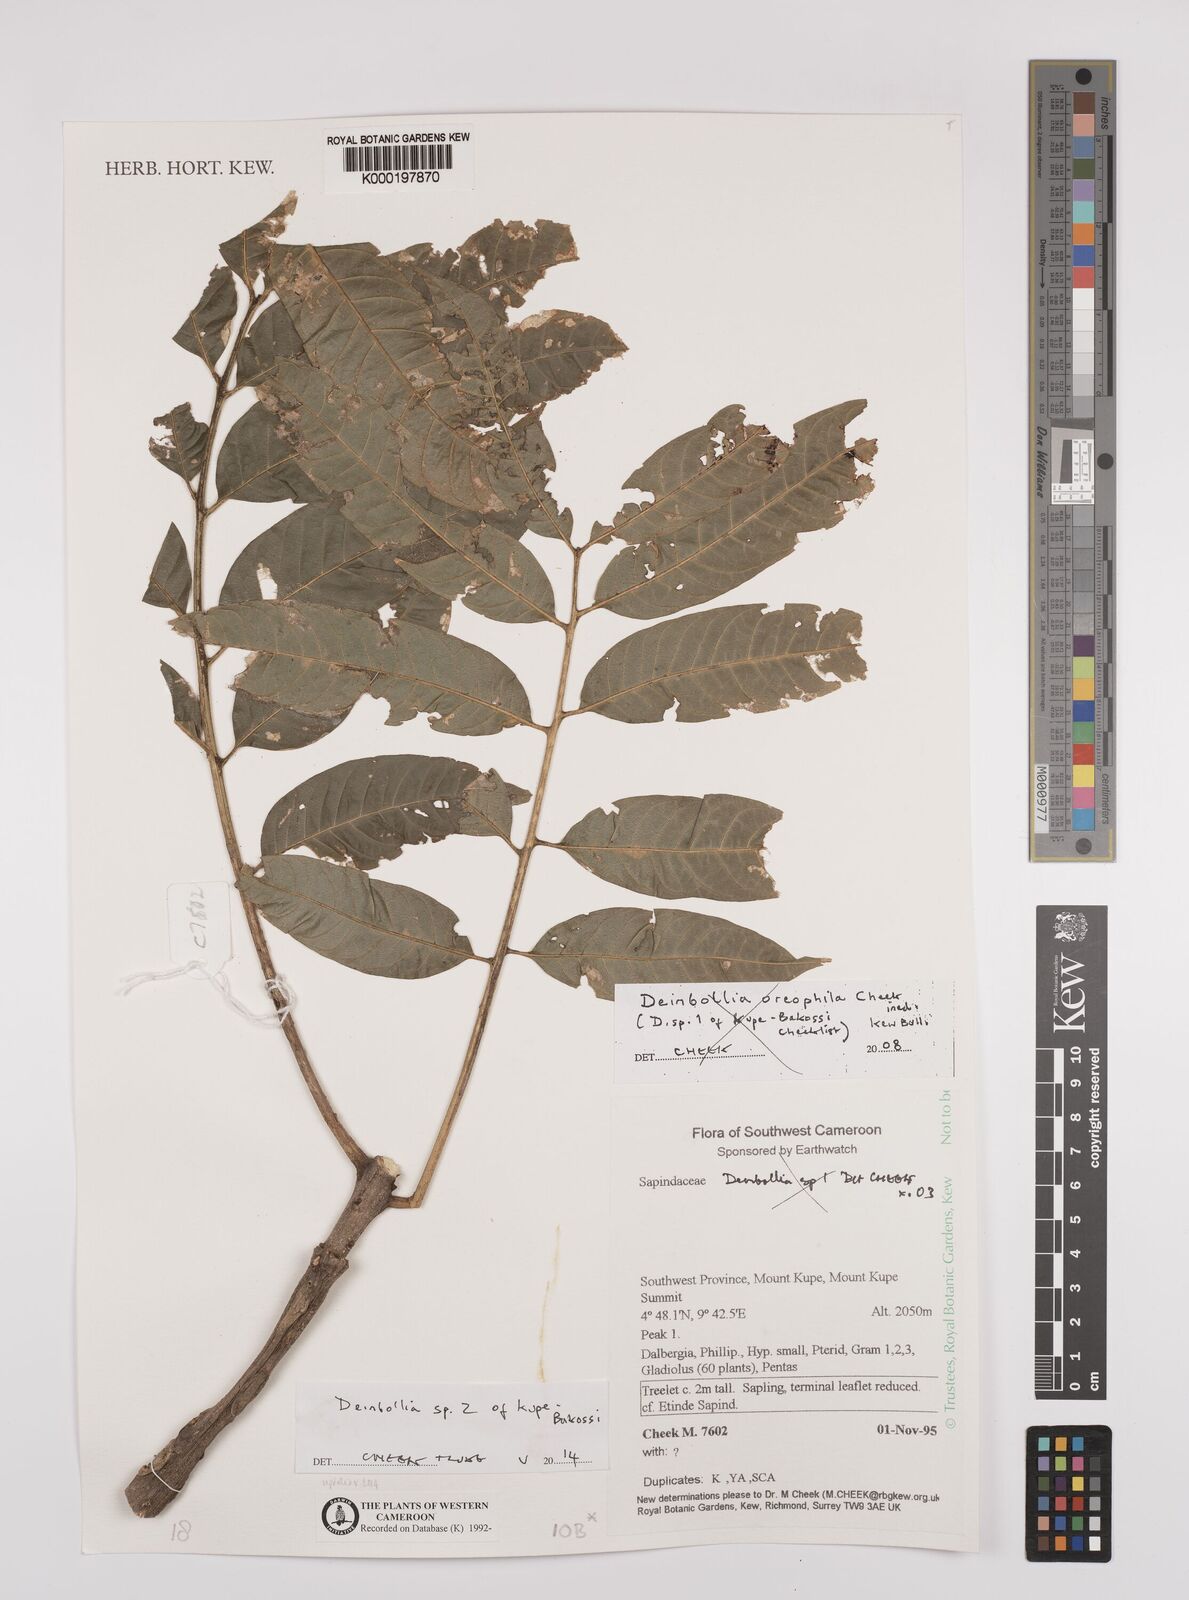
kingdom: Plantae
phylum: Tracheophyta
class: Magnoliopsida
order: Sapindales
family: Sapindaceae
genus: Deinbollia
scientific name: Deinbollia oreophila
